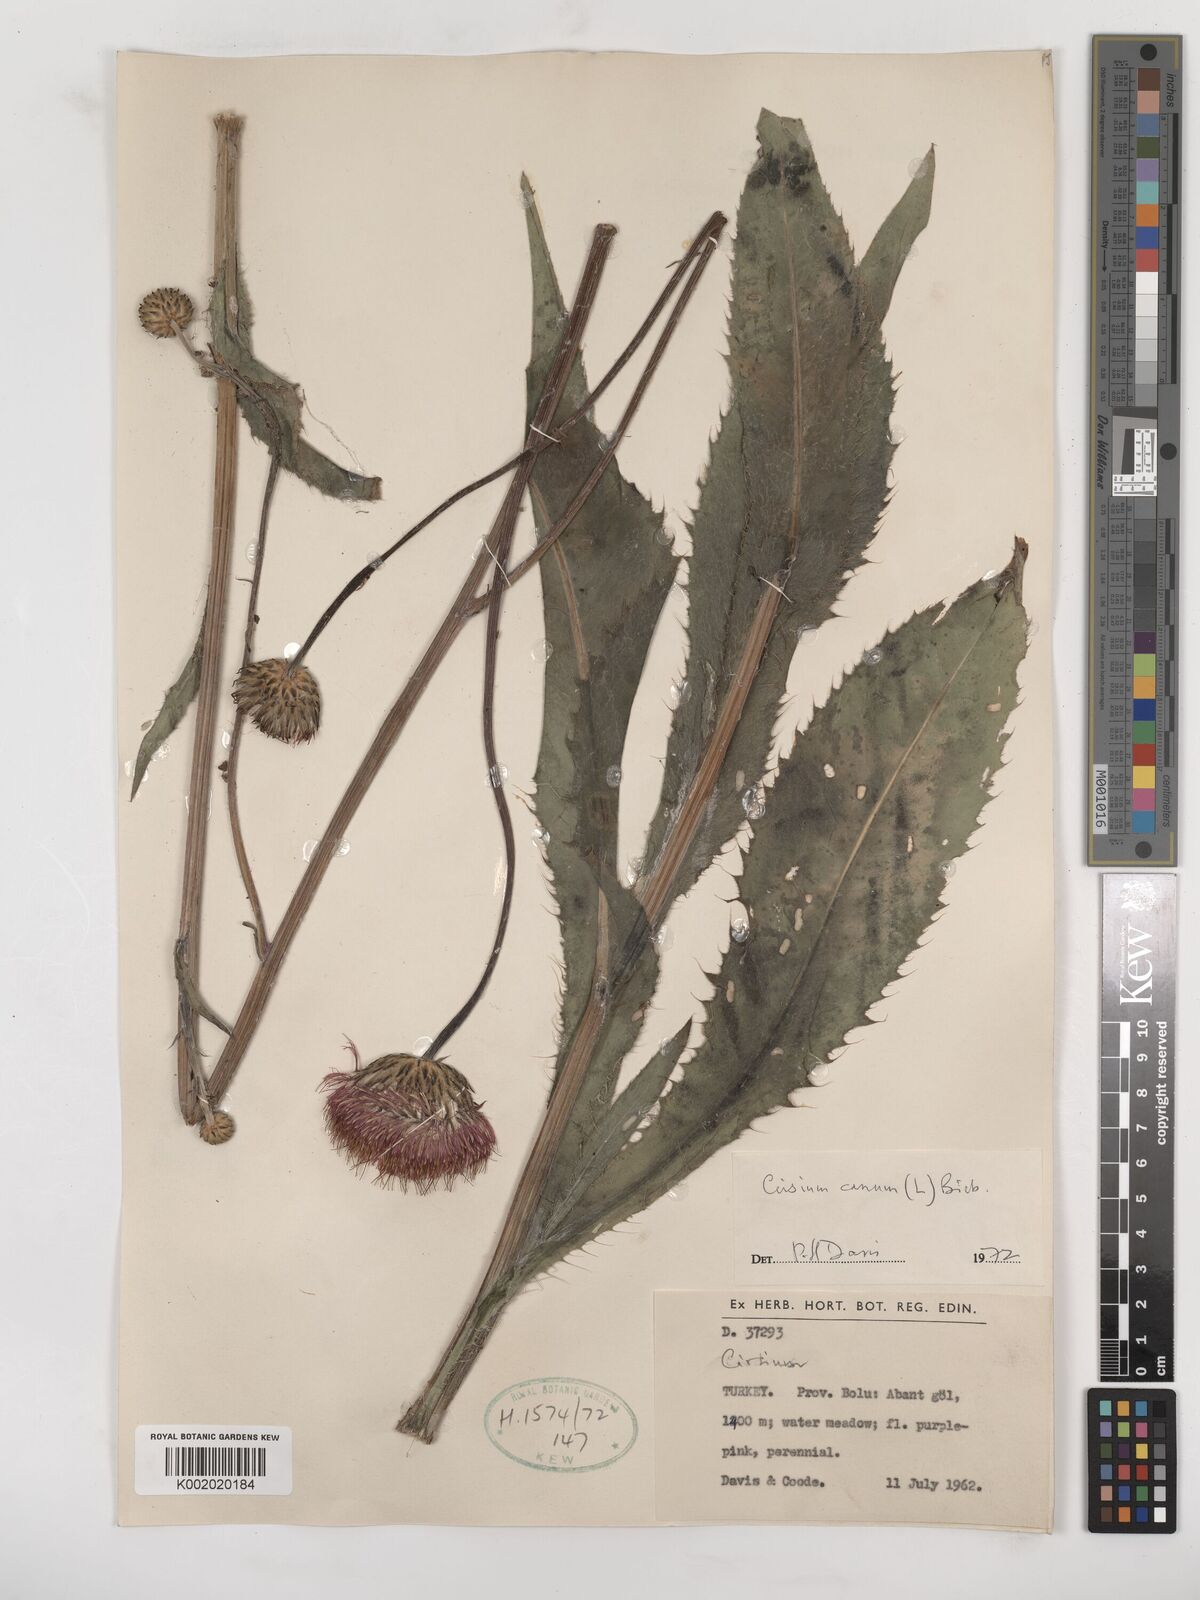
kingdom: Plantae
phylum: Tracheophyta
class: Magnoliopsida
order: Asterales
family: Asteraceae
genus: Cirsium
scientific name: Cirsium canum
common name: Queen anne's thistle
